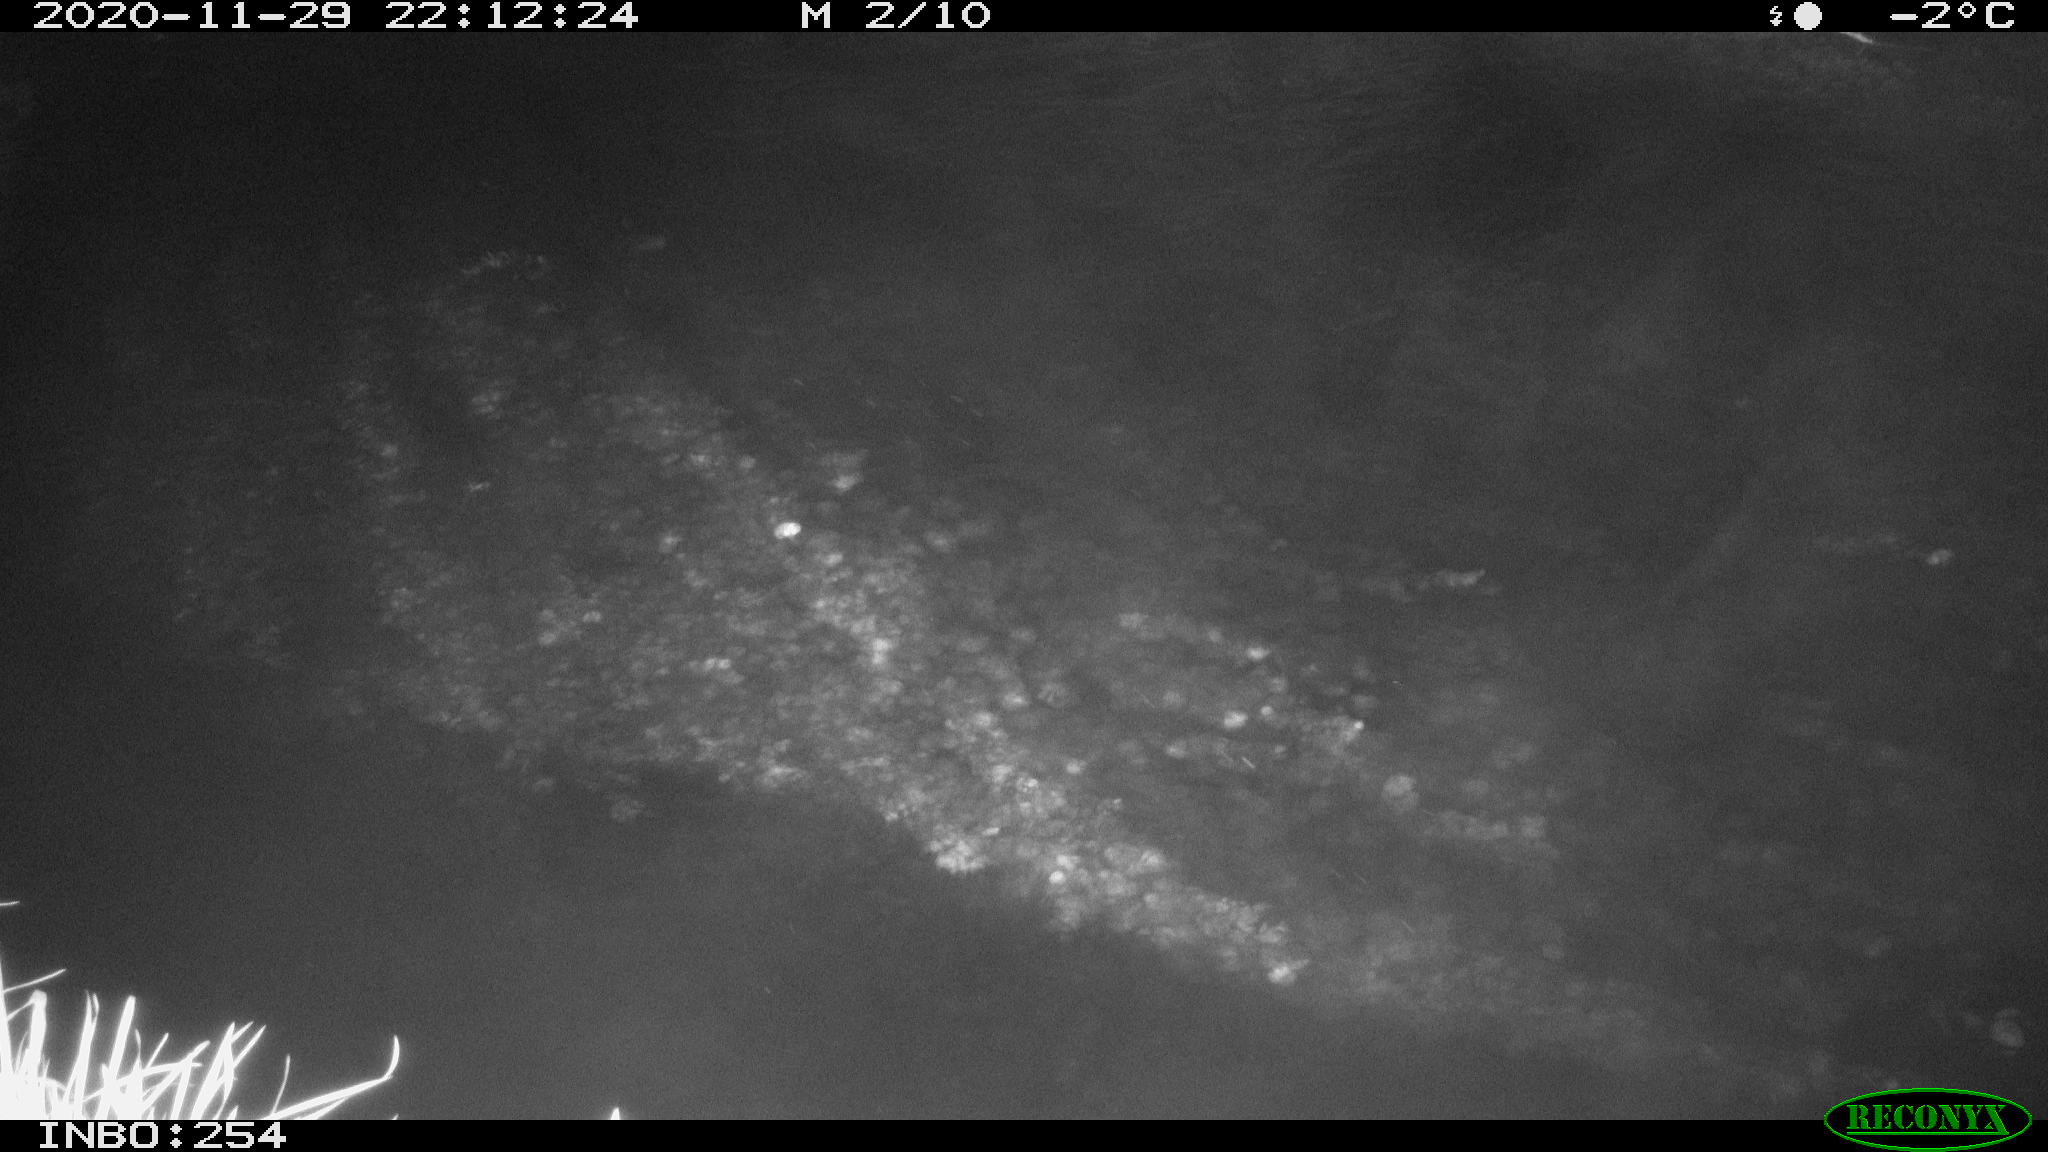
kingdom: Animalia
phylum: Chordata
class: Aves
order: Anseriformes
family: Anatidae
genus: Anas
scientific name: Anas platyrhynchos
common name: Mallard
